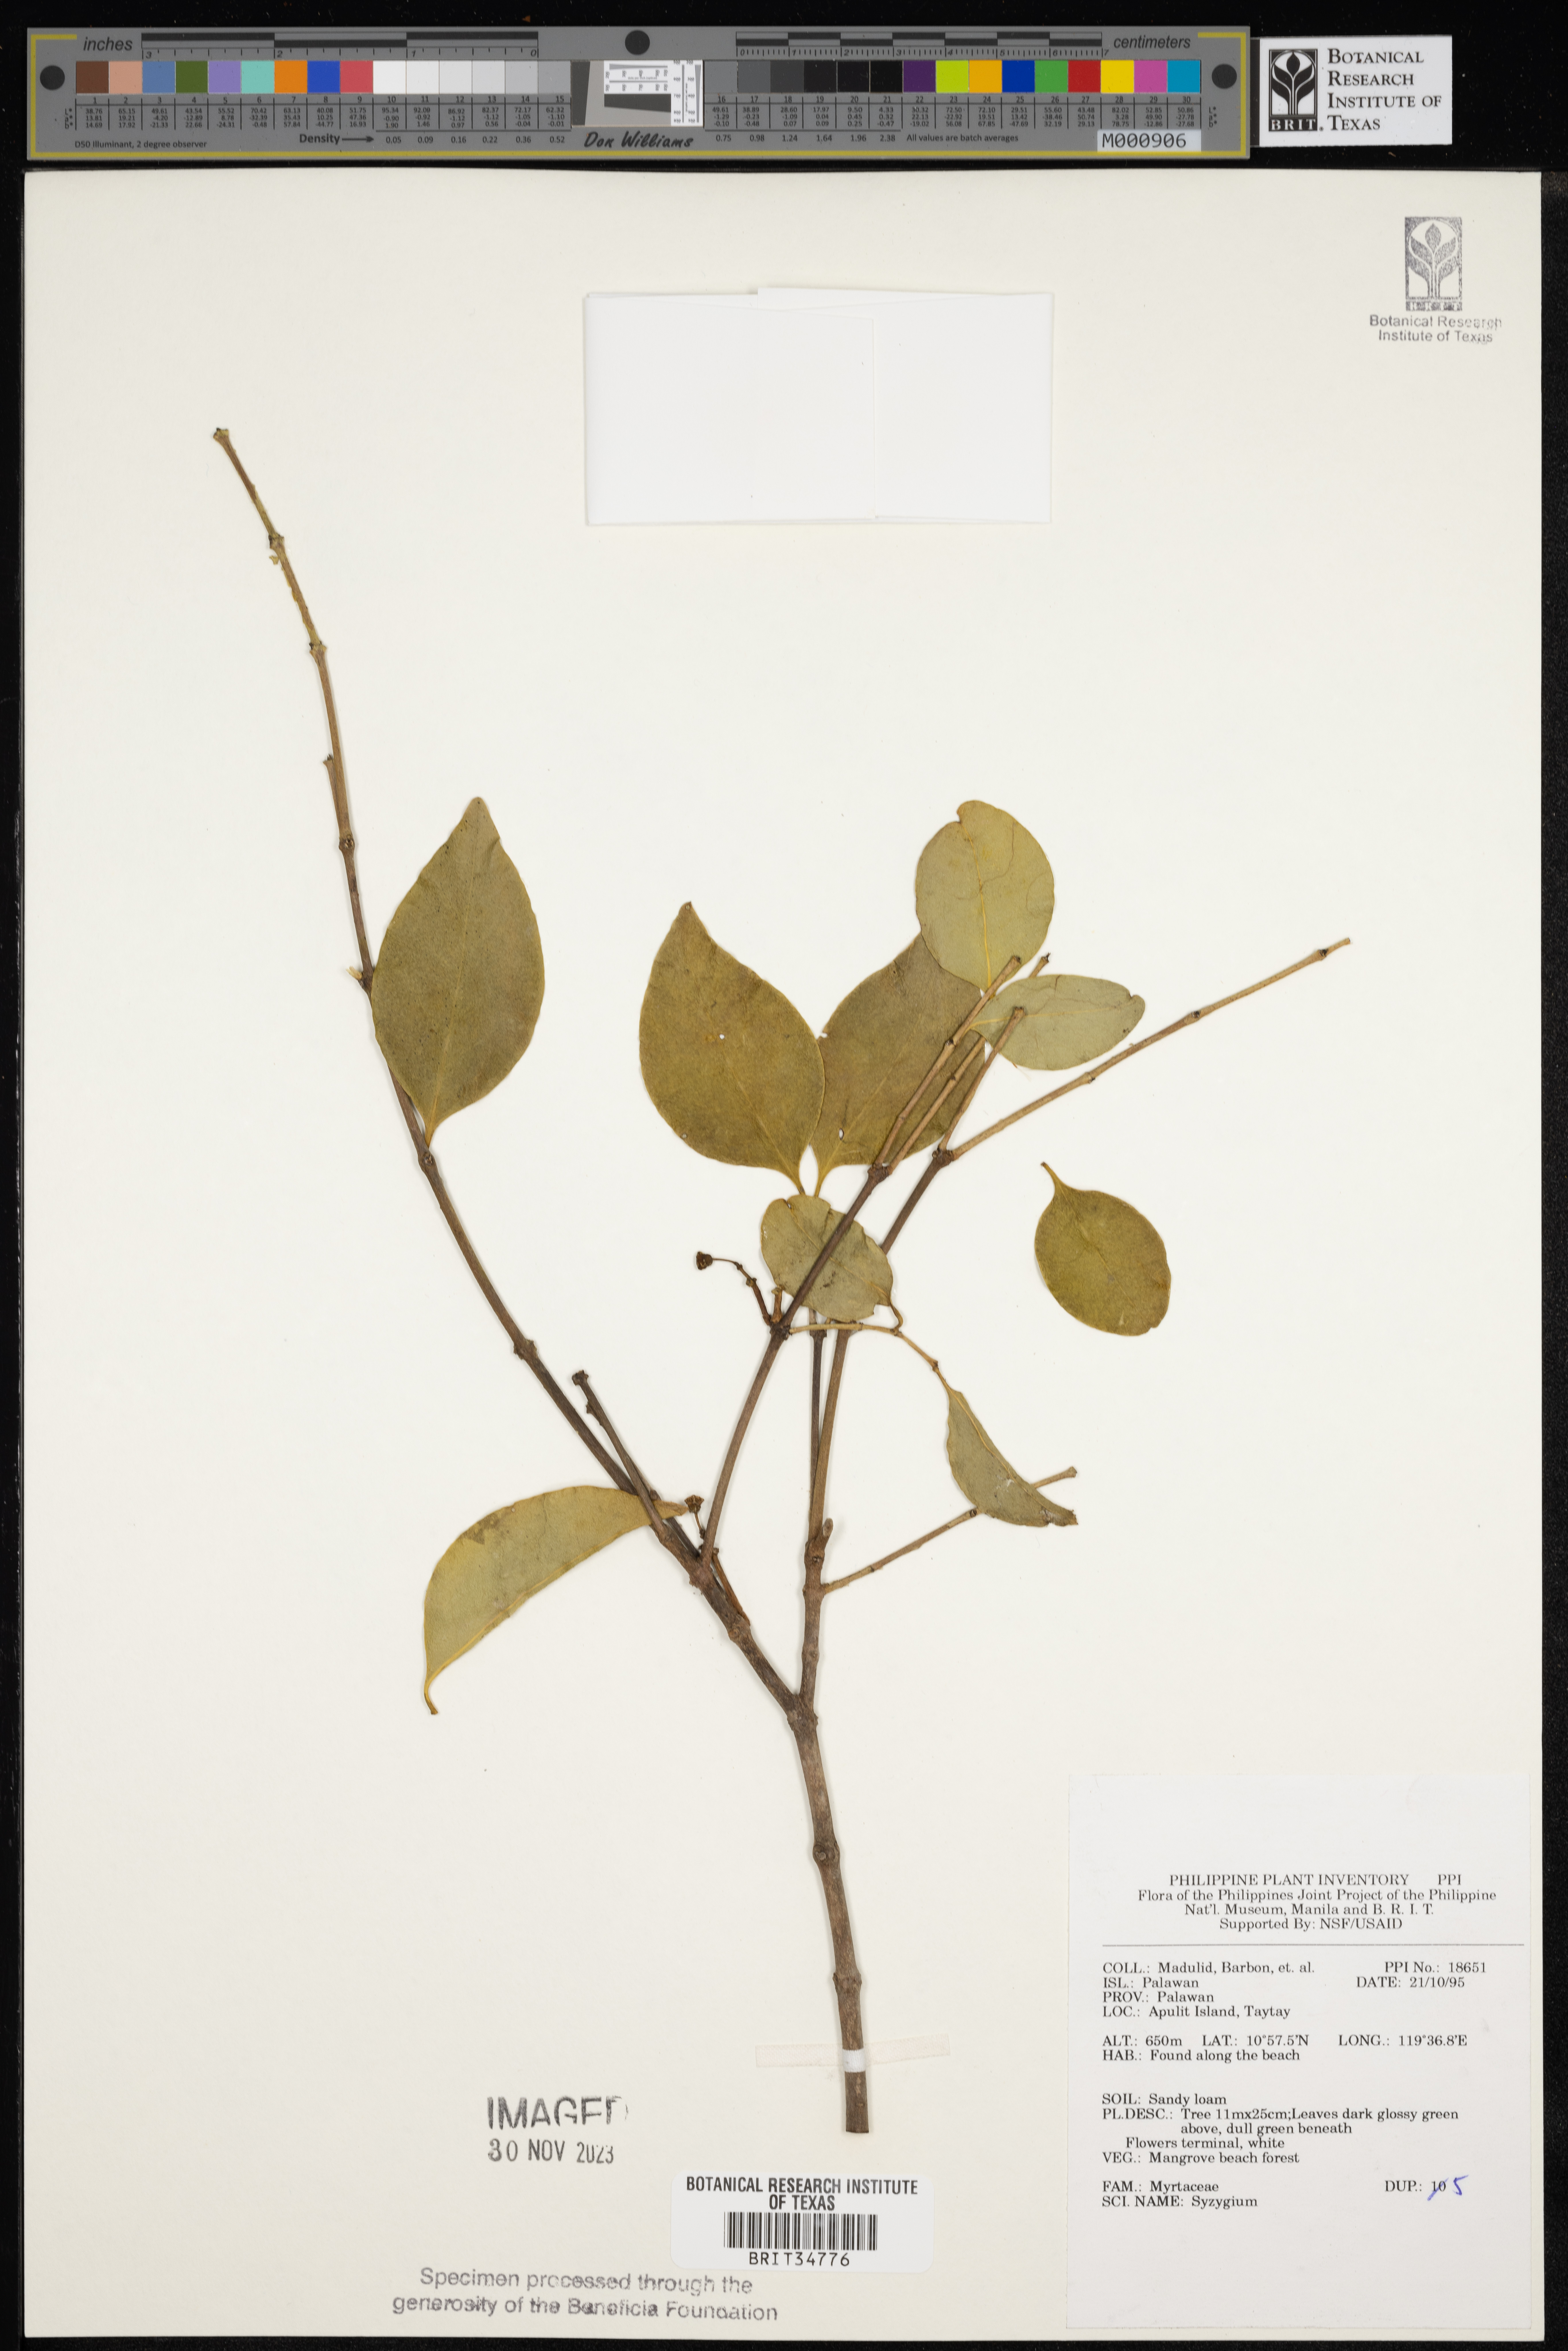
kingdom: Plantae
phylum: Tracheophyta
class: Magnoliopsida
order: Myrtales
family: Myrtaceae
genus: Syzygium
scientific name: Syzygium
